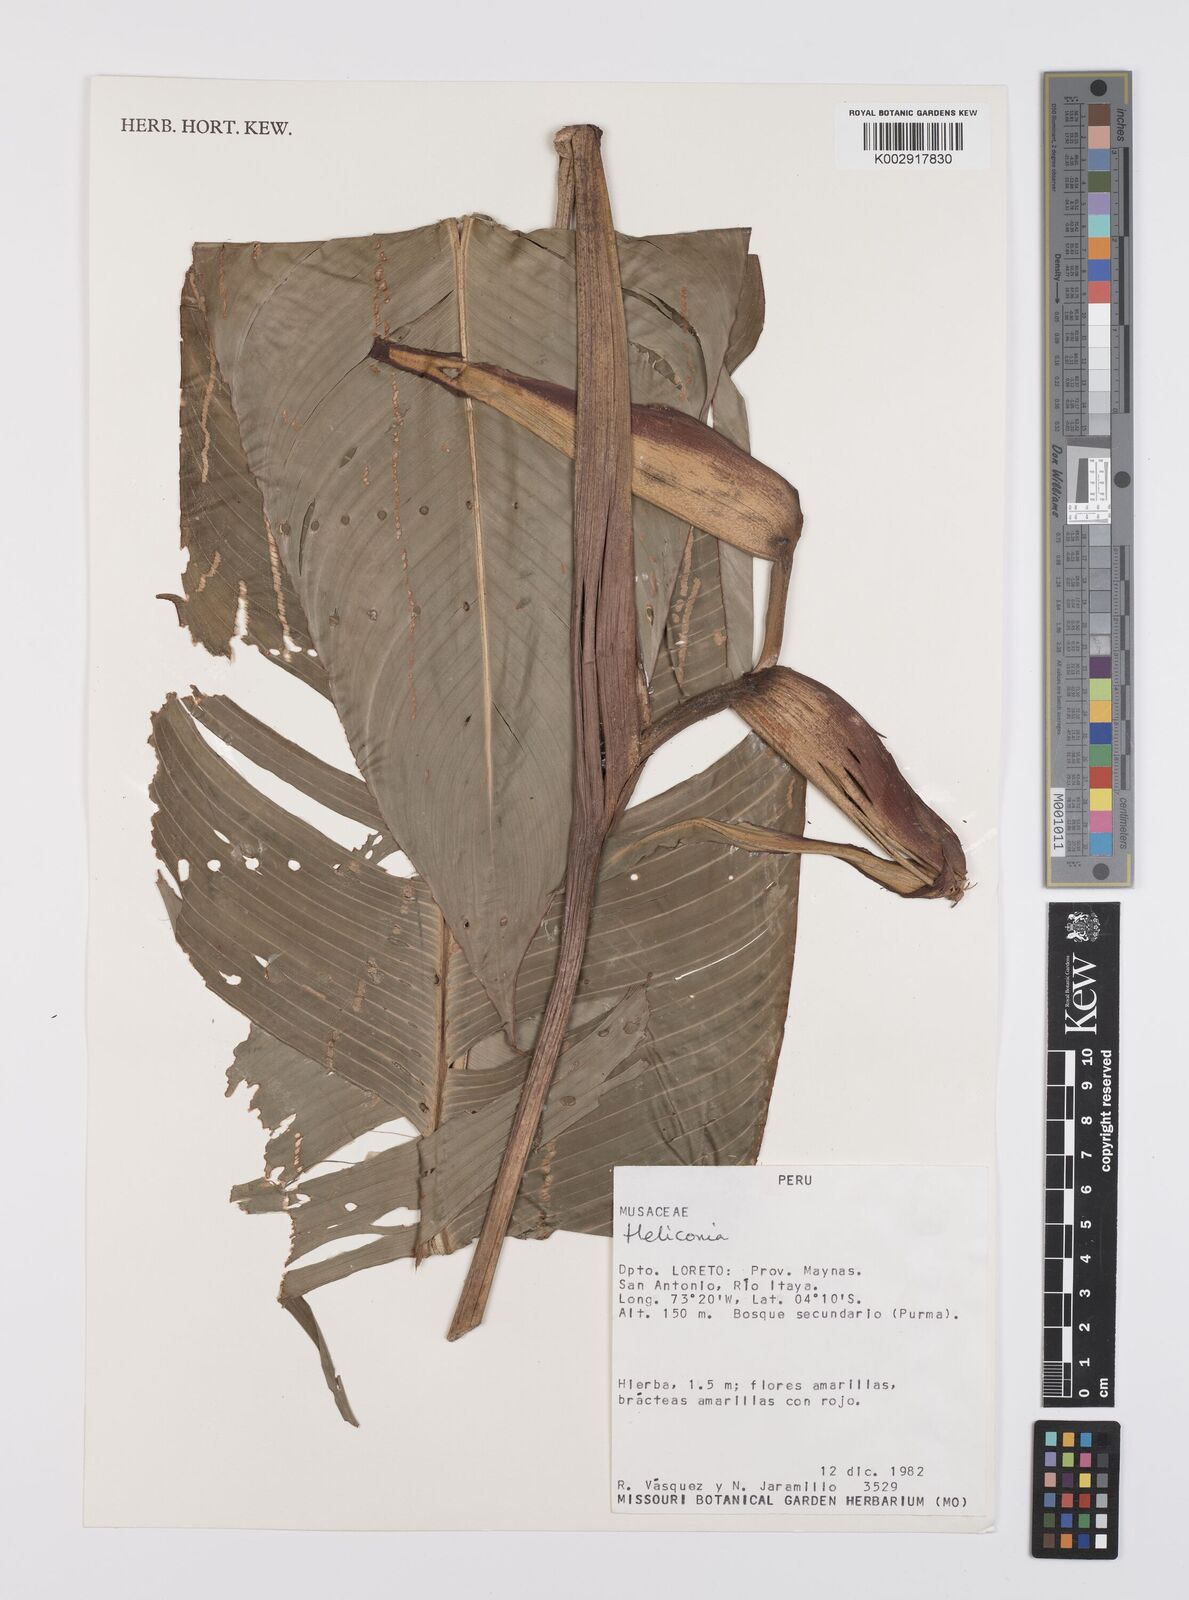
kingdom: Plantae
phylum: Tracheophyta
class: Liliopsida
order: Zingiberales
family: Heliconiaceae
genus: Heliconia
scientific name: Heliconia
